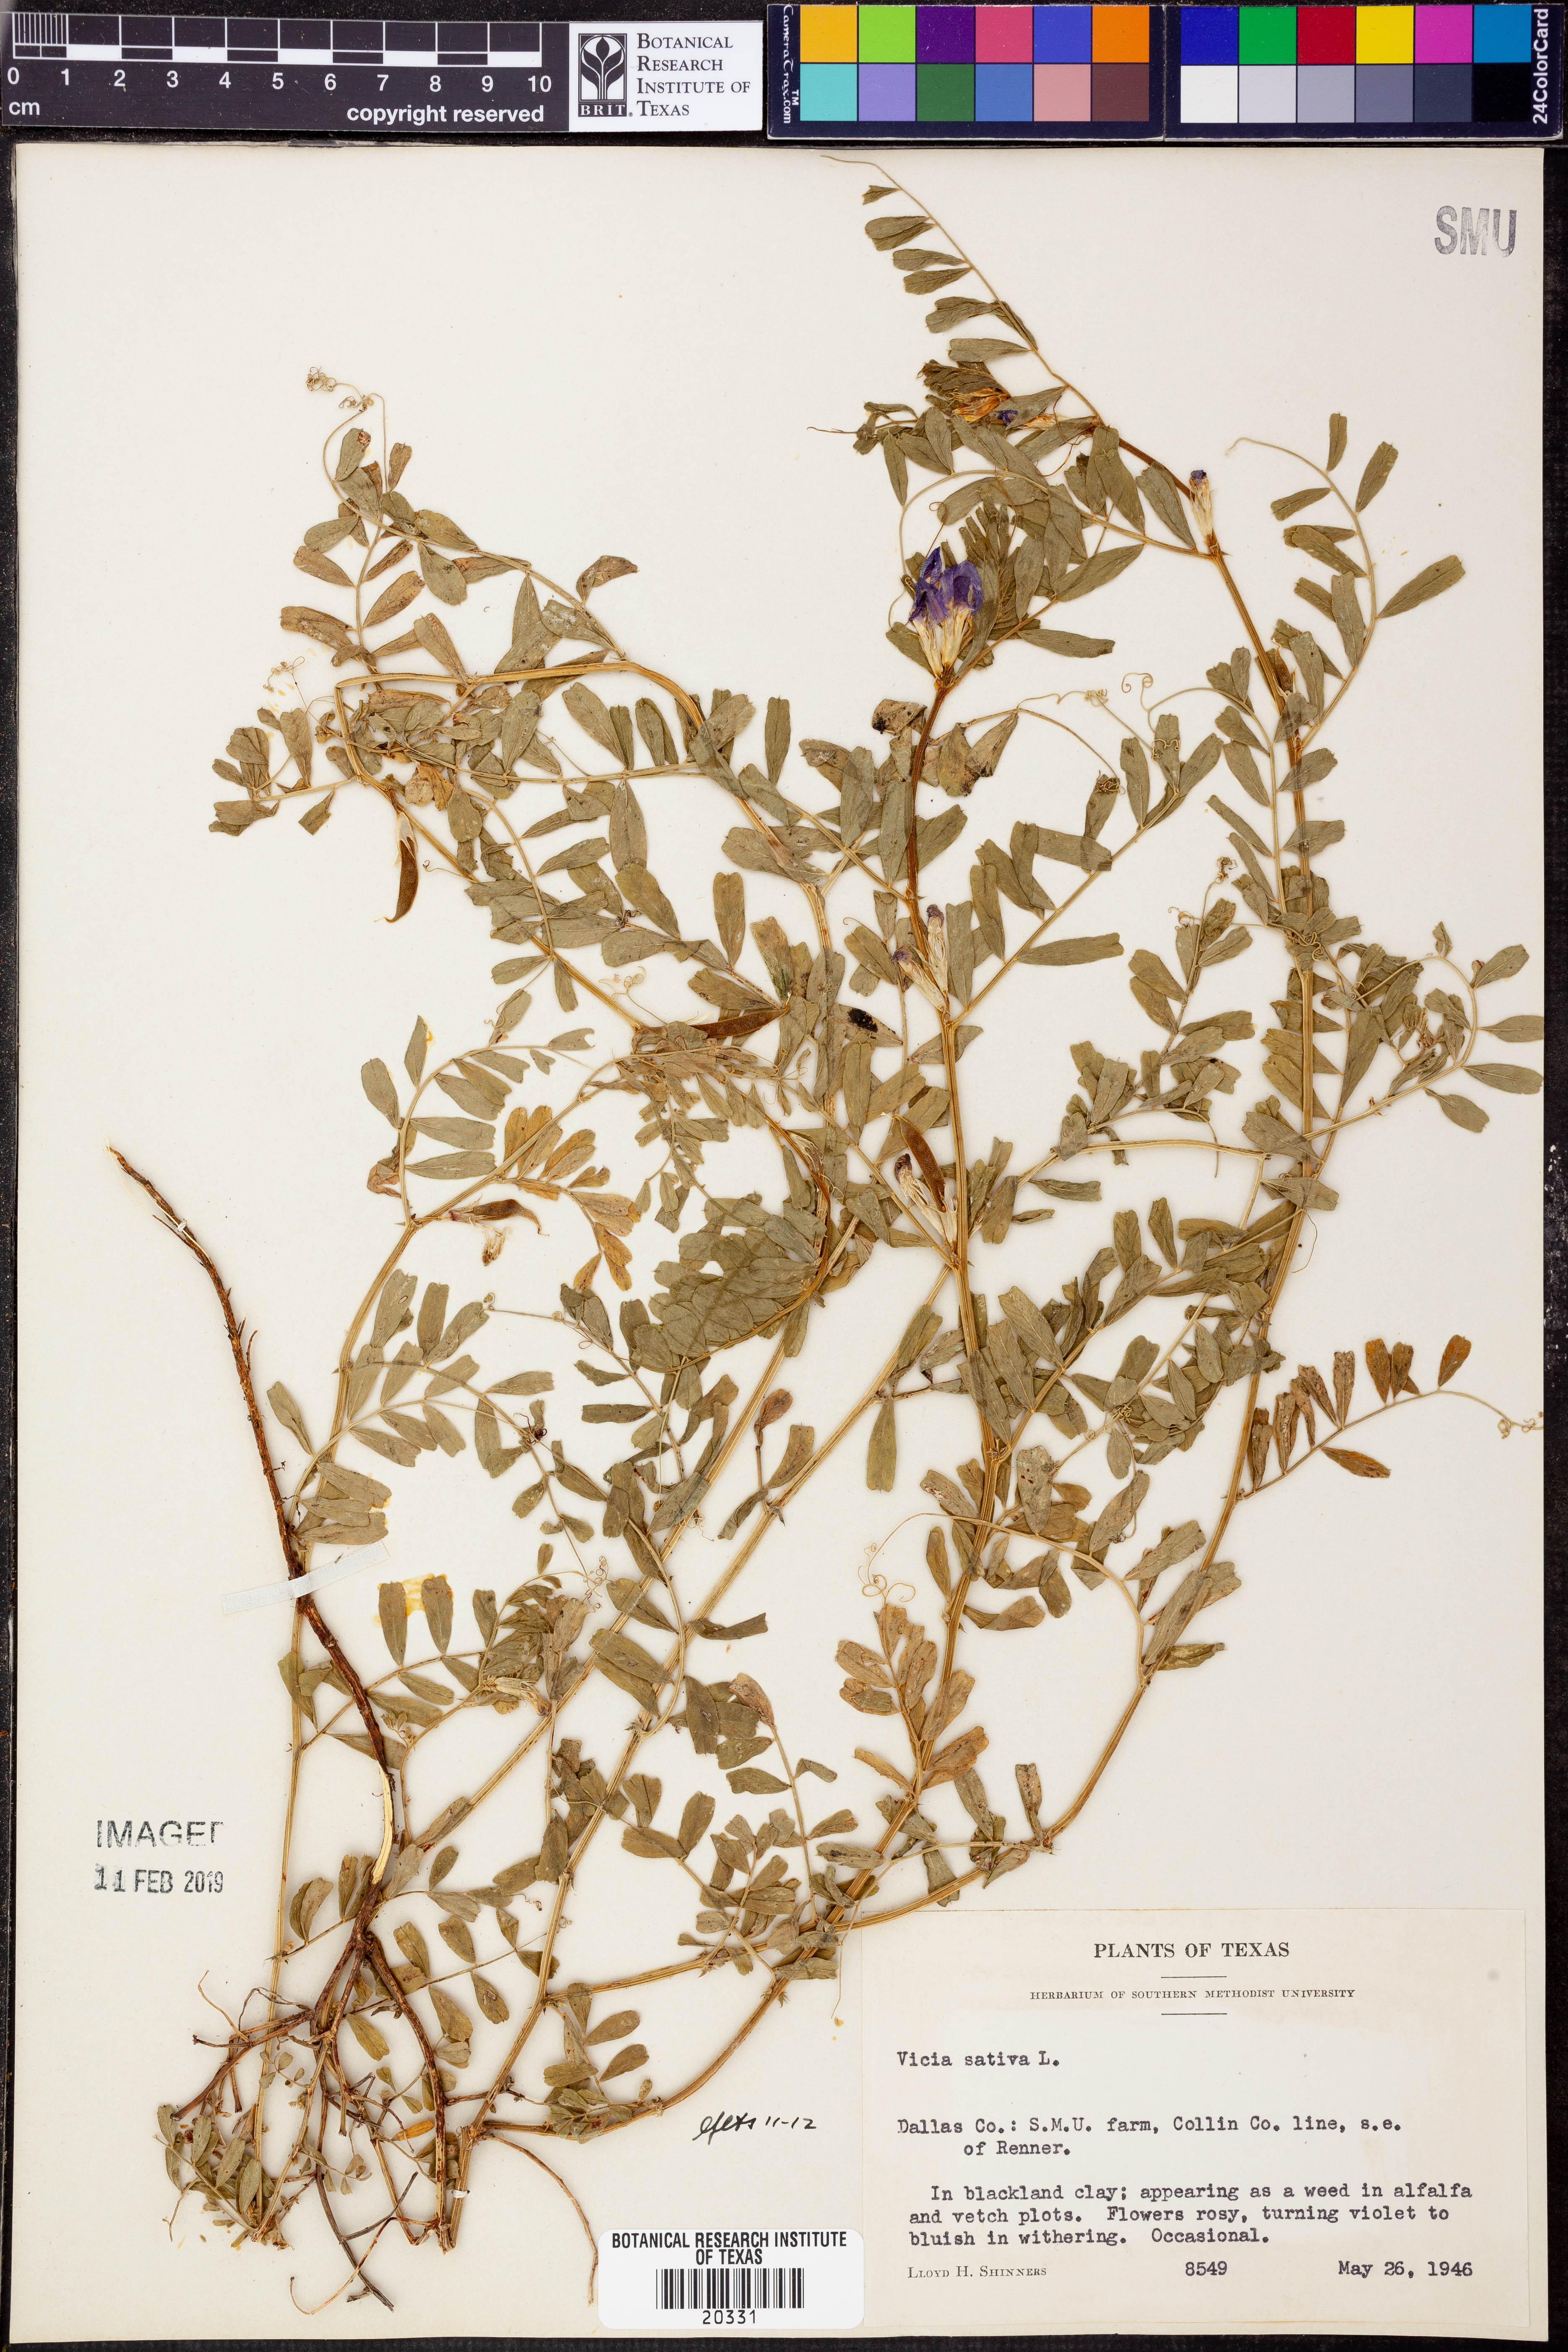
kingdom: Plantae
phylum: Tracheophyta
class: Magnoliopsida
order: Fabales
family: Fabaceae
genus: Vicia
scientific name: Vicia sativa
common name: Garden vetch
